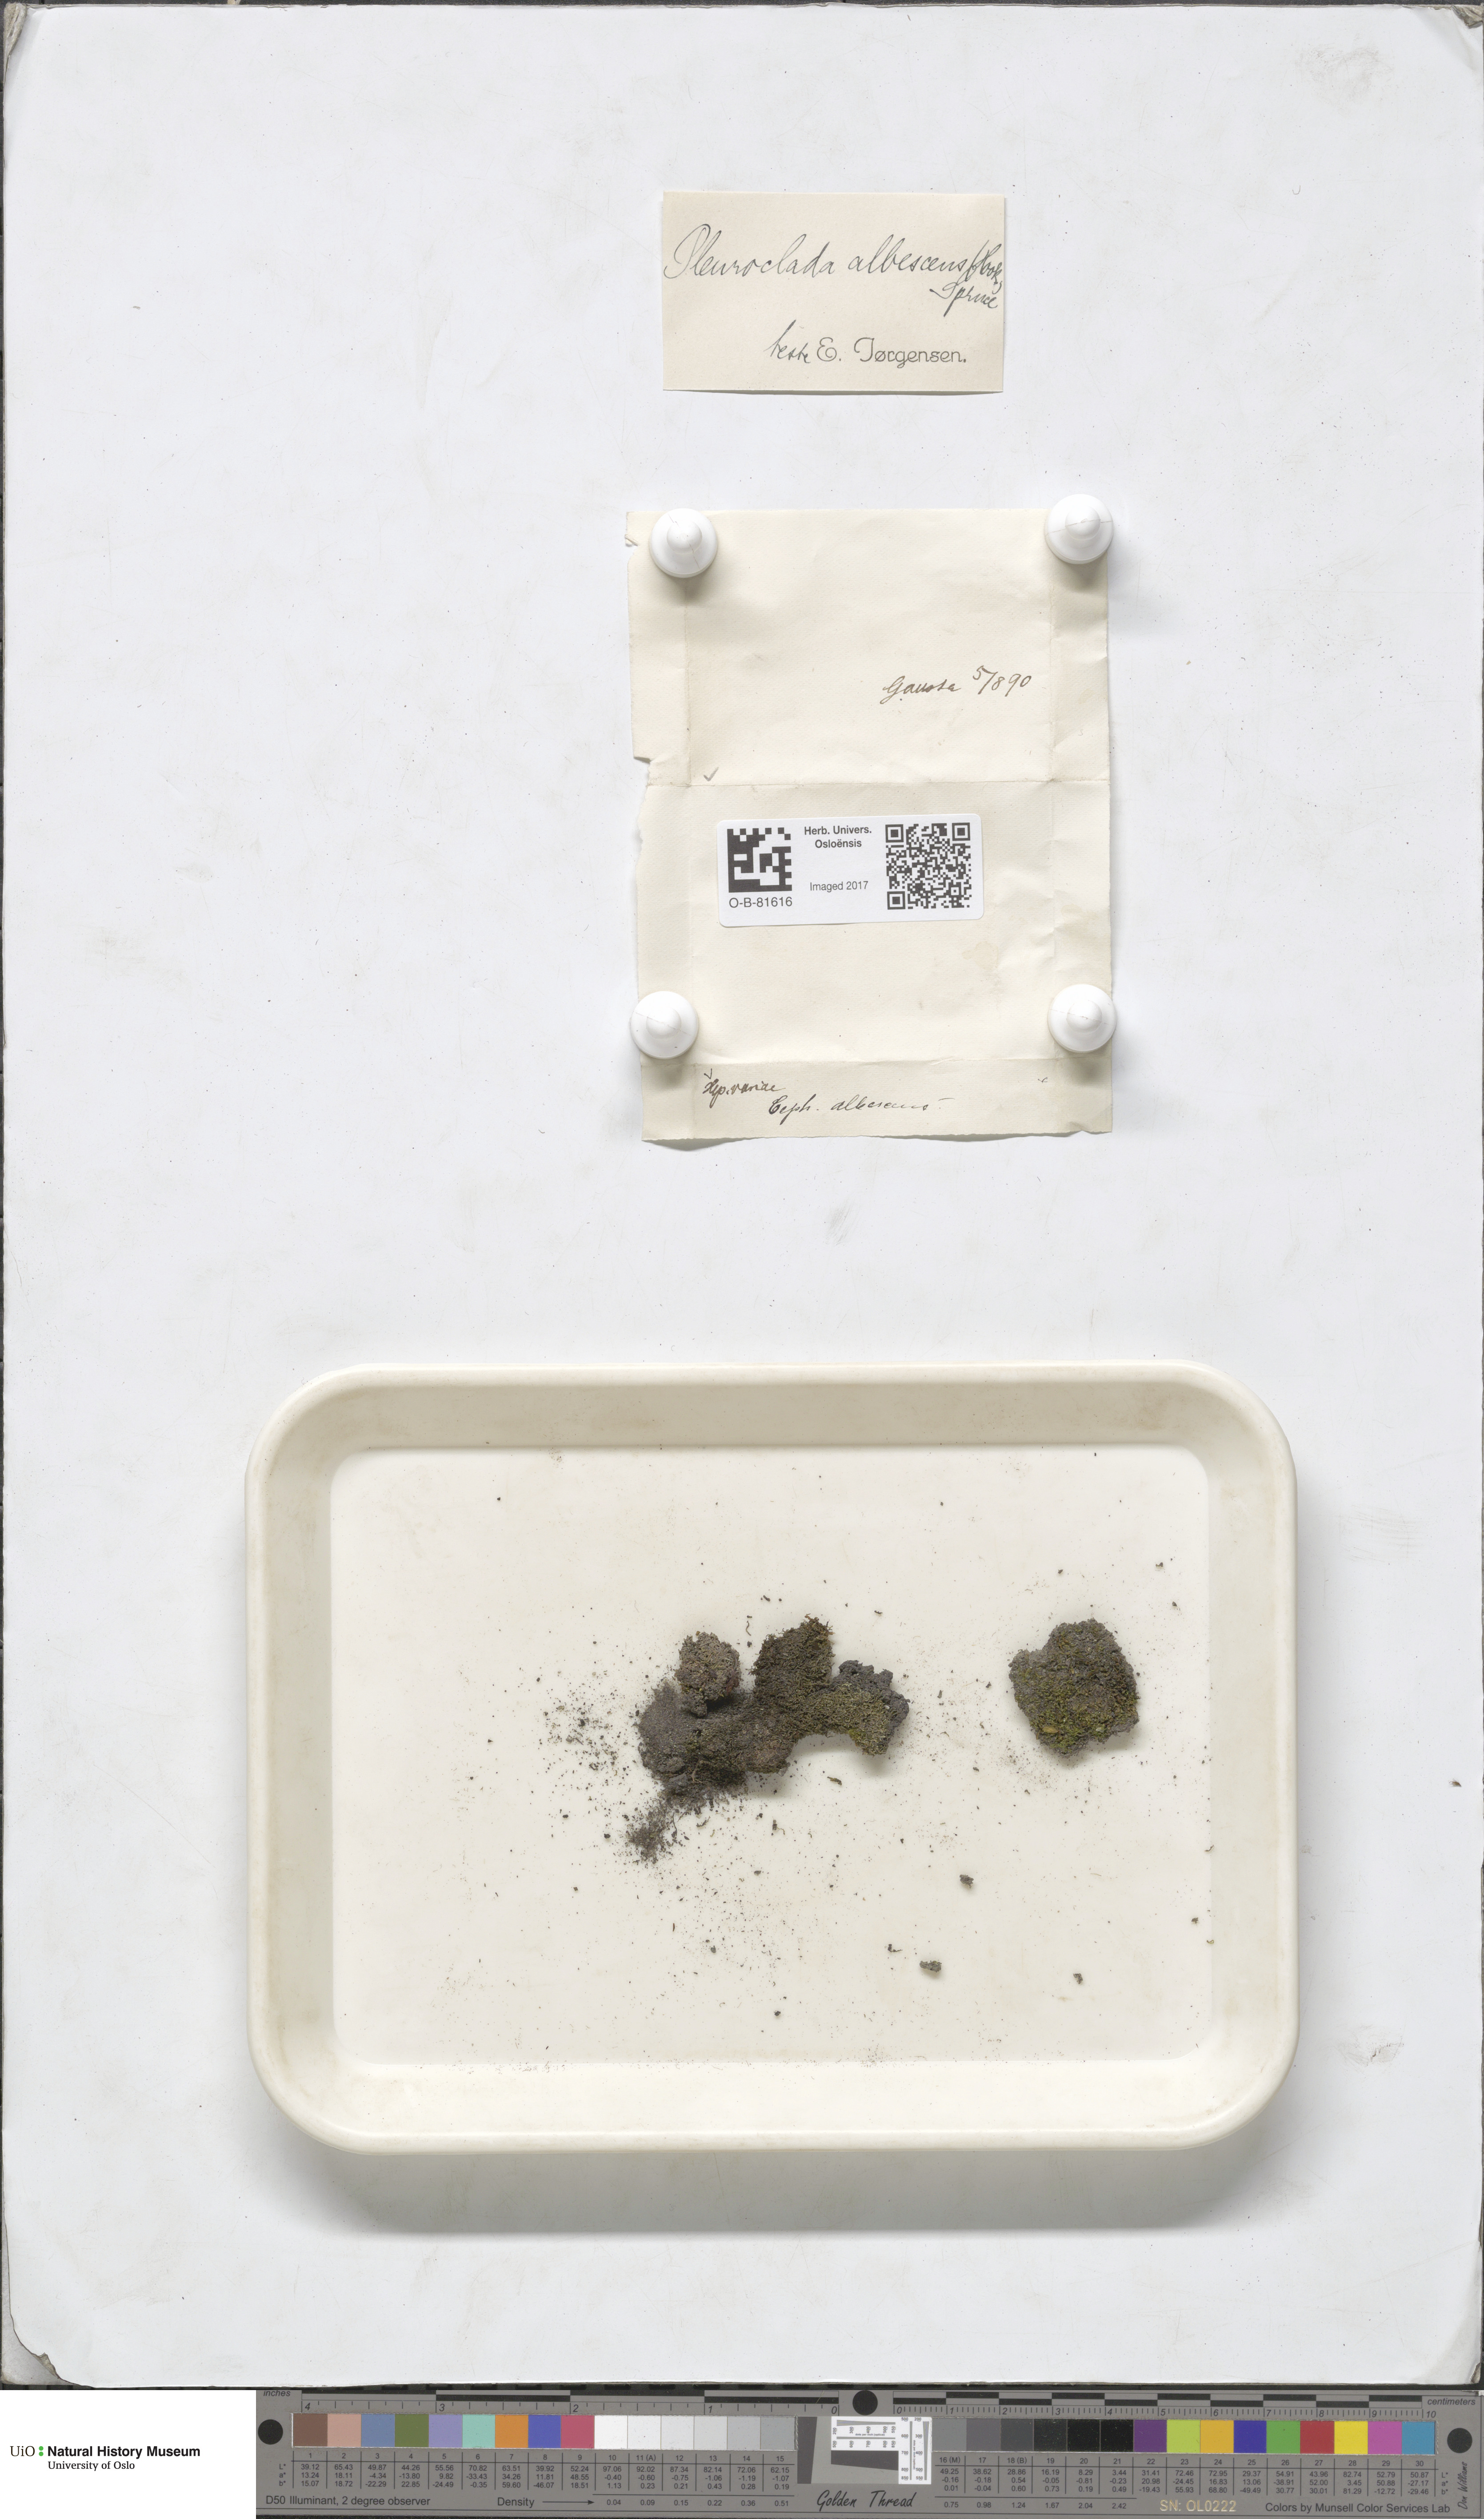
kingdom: Plantae
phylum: Marchantiophyta
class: Jungermanniopsida
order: Jungermanniales
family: Cephaloziaceae
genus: Fuscocephaloziopsis
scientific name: Fuscocephaloziopsis albescens
